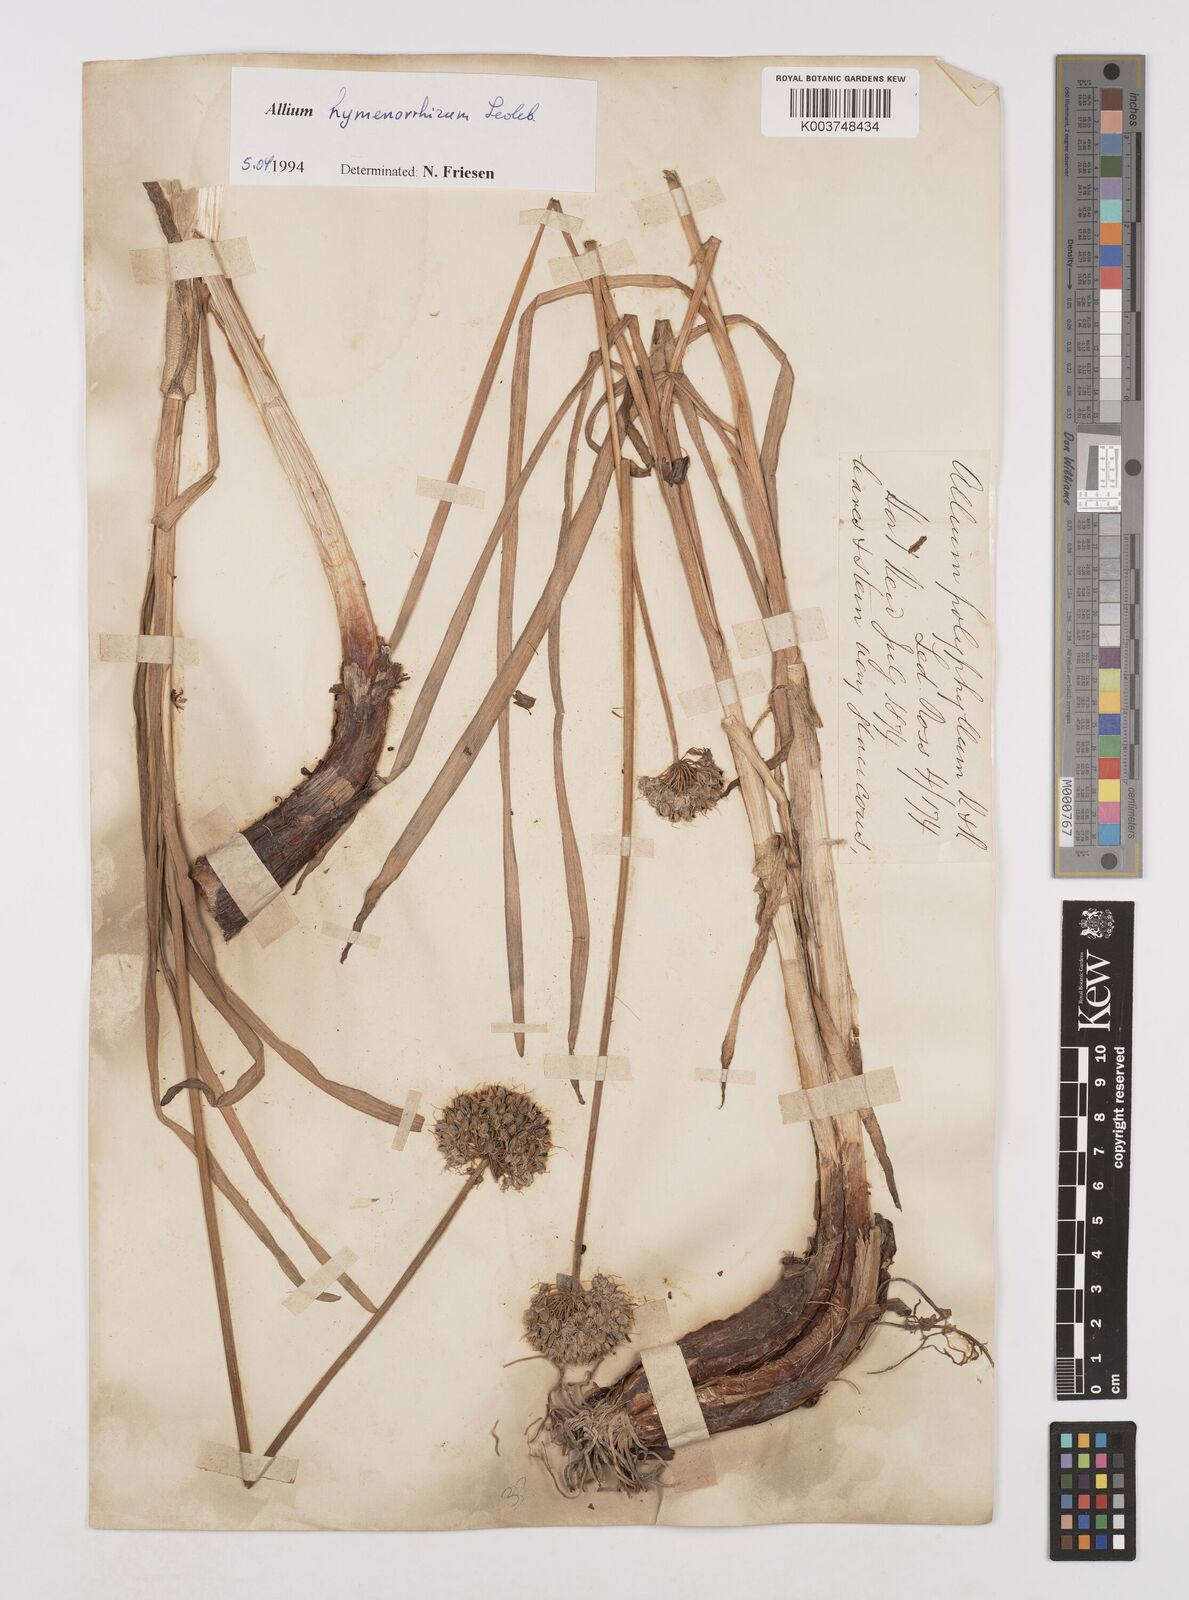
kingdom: Plantae
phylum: Tracheophyta
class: Liliopsida
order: Asparagales
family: Amaryllidaceae
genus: Allium
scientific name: Allium hymenorhizum
